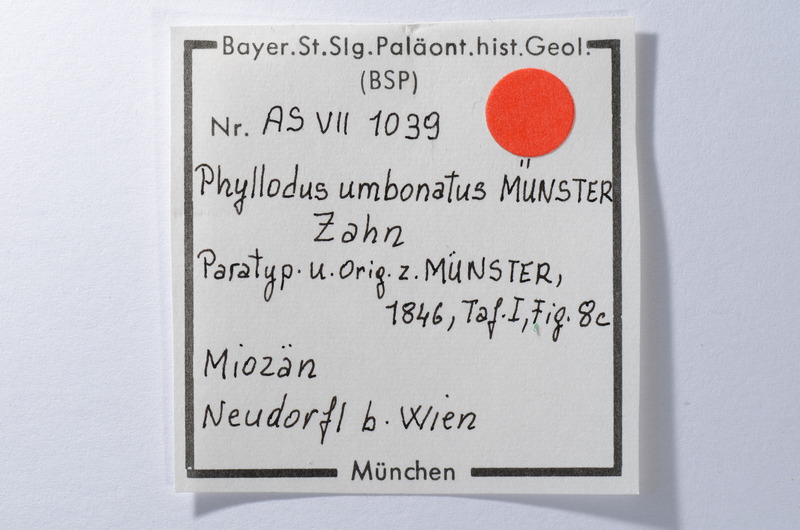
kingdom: Animalia
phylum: Chordata
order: Anguilliformes
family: Phyllodontidae
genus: Phyllodus
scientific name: Phyllodus
